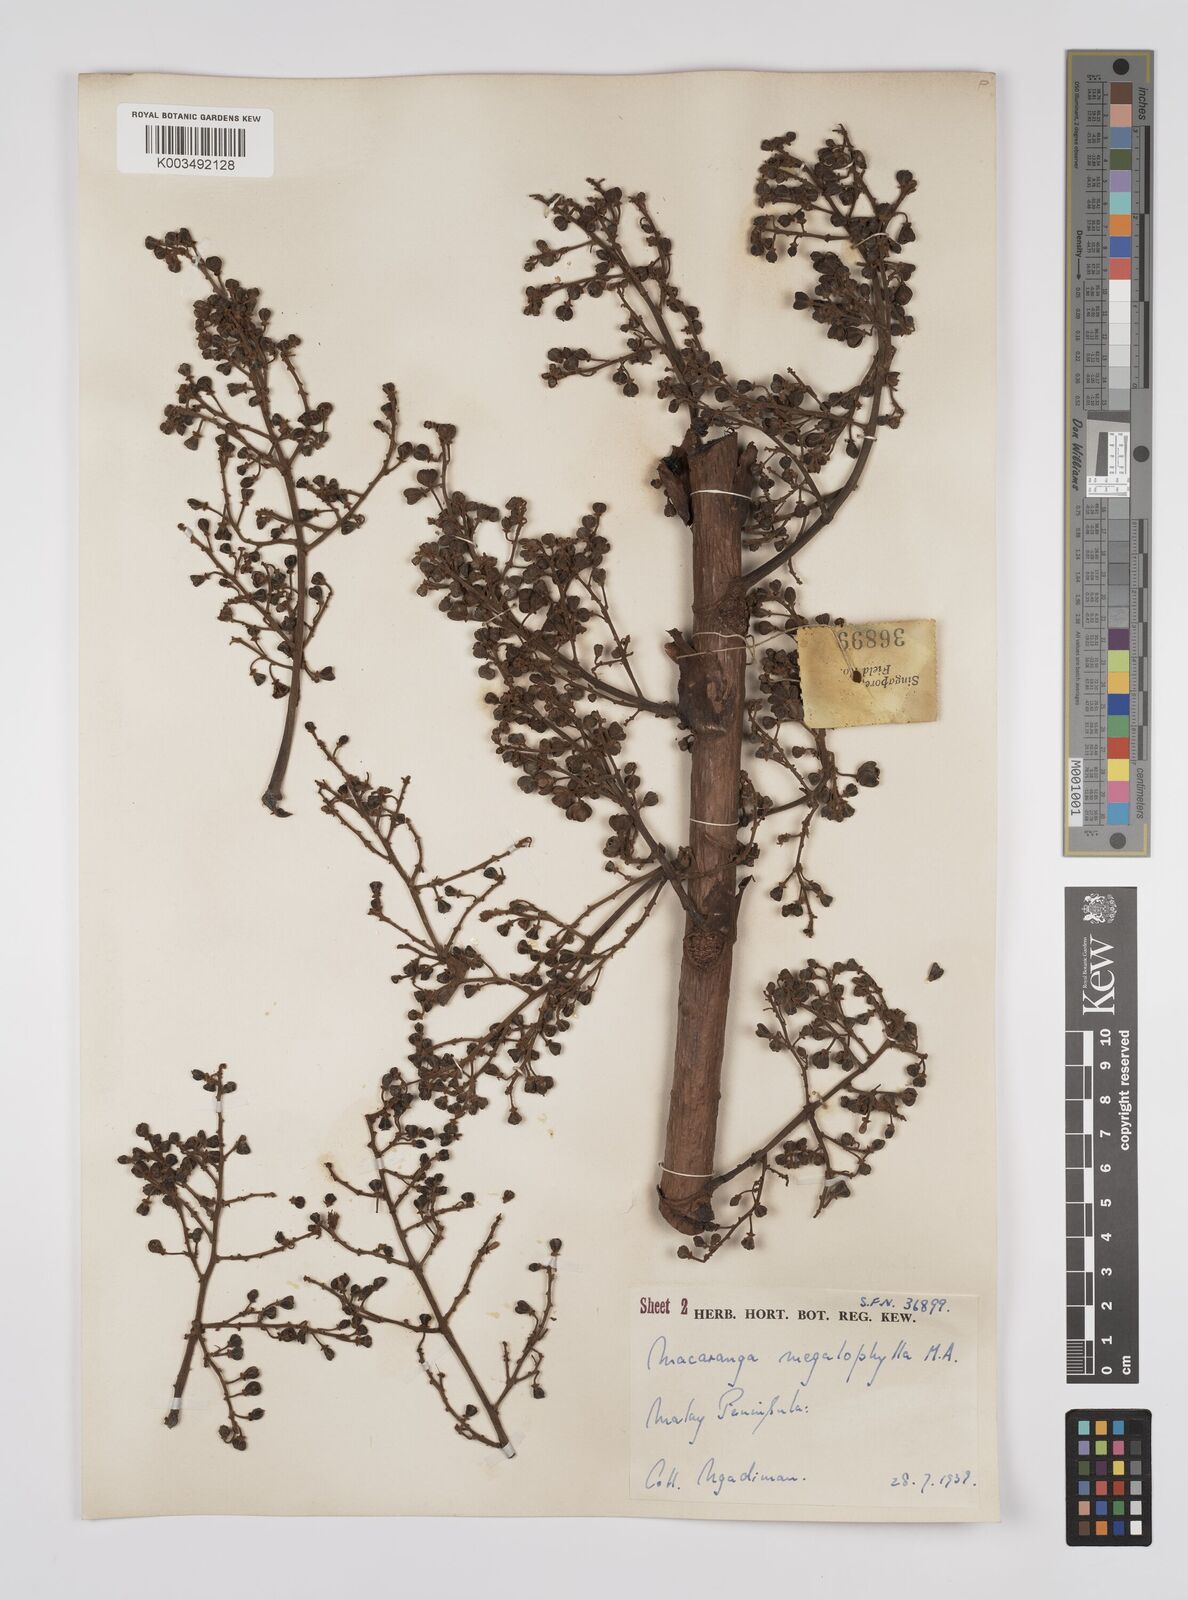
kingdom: Plantae
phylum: Tracheophyta
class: Magnoliopsida
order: Malpighiales
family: Euphorbiaceae
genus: Macaranga
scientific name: Macaranga gigantea
